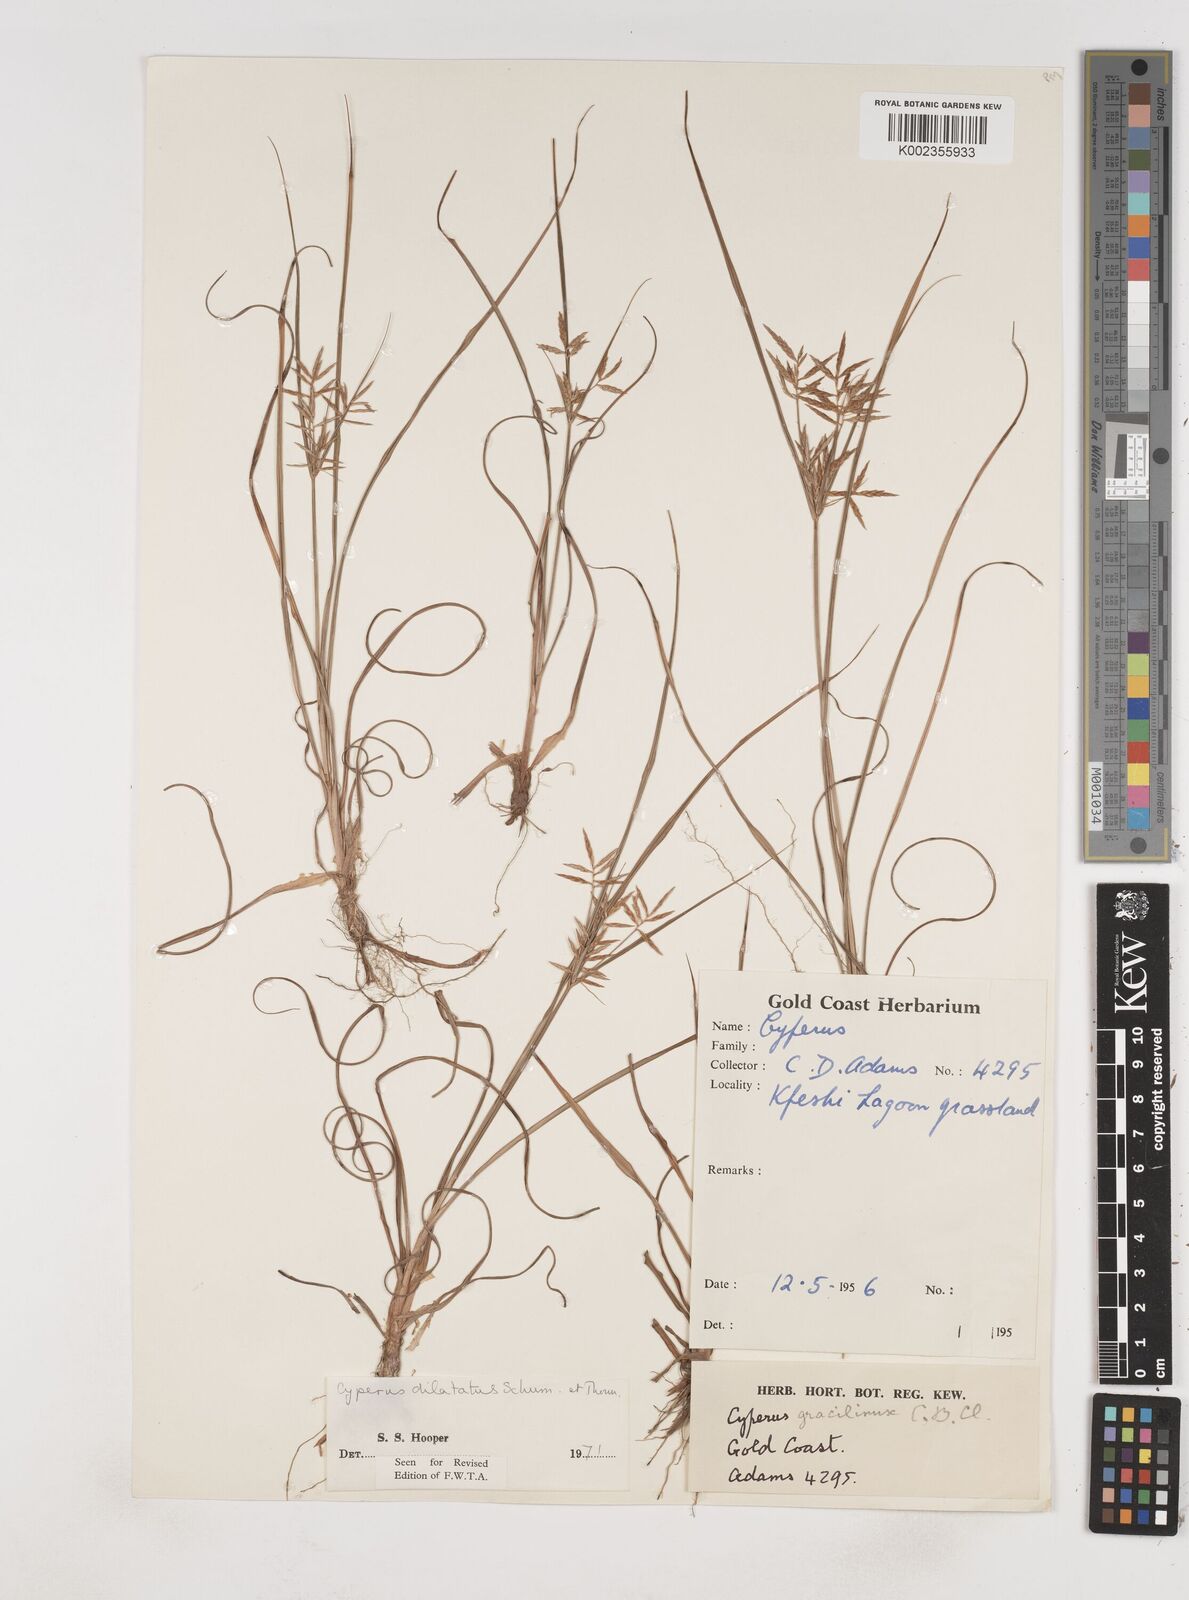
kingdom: Plantae
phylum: Tracheophyta
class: Liliopsida
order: Poales
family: Cyperaceae
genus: Cyperus
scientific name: Cyperus dilatatus
